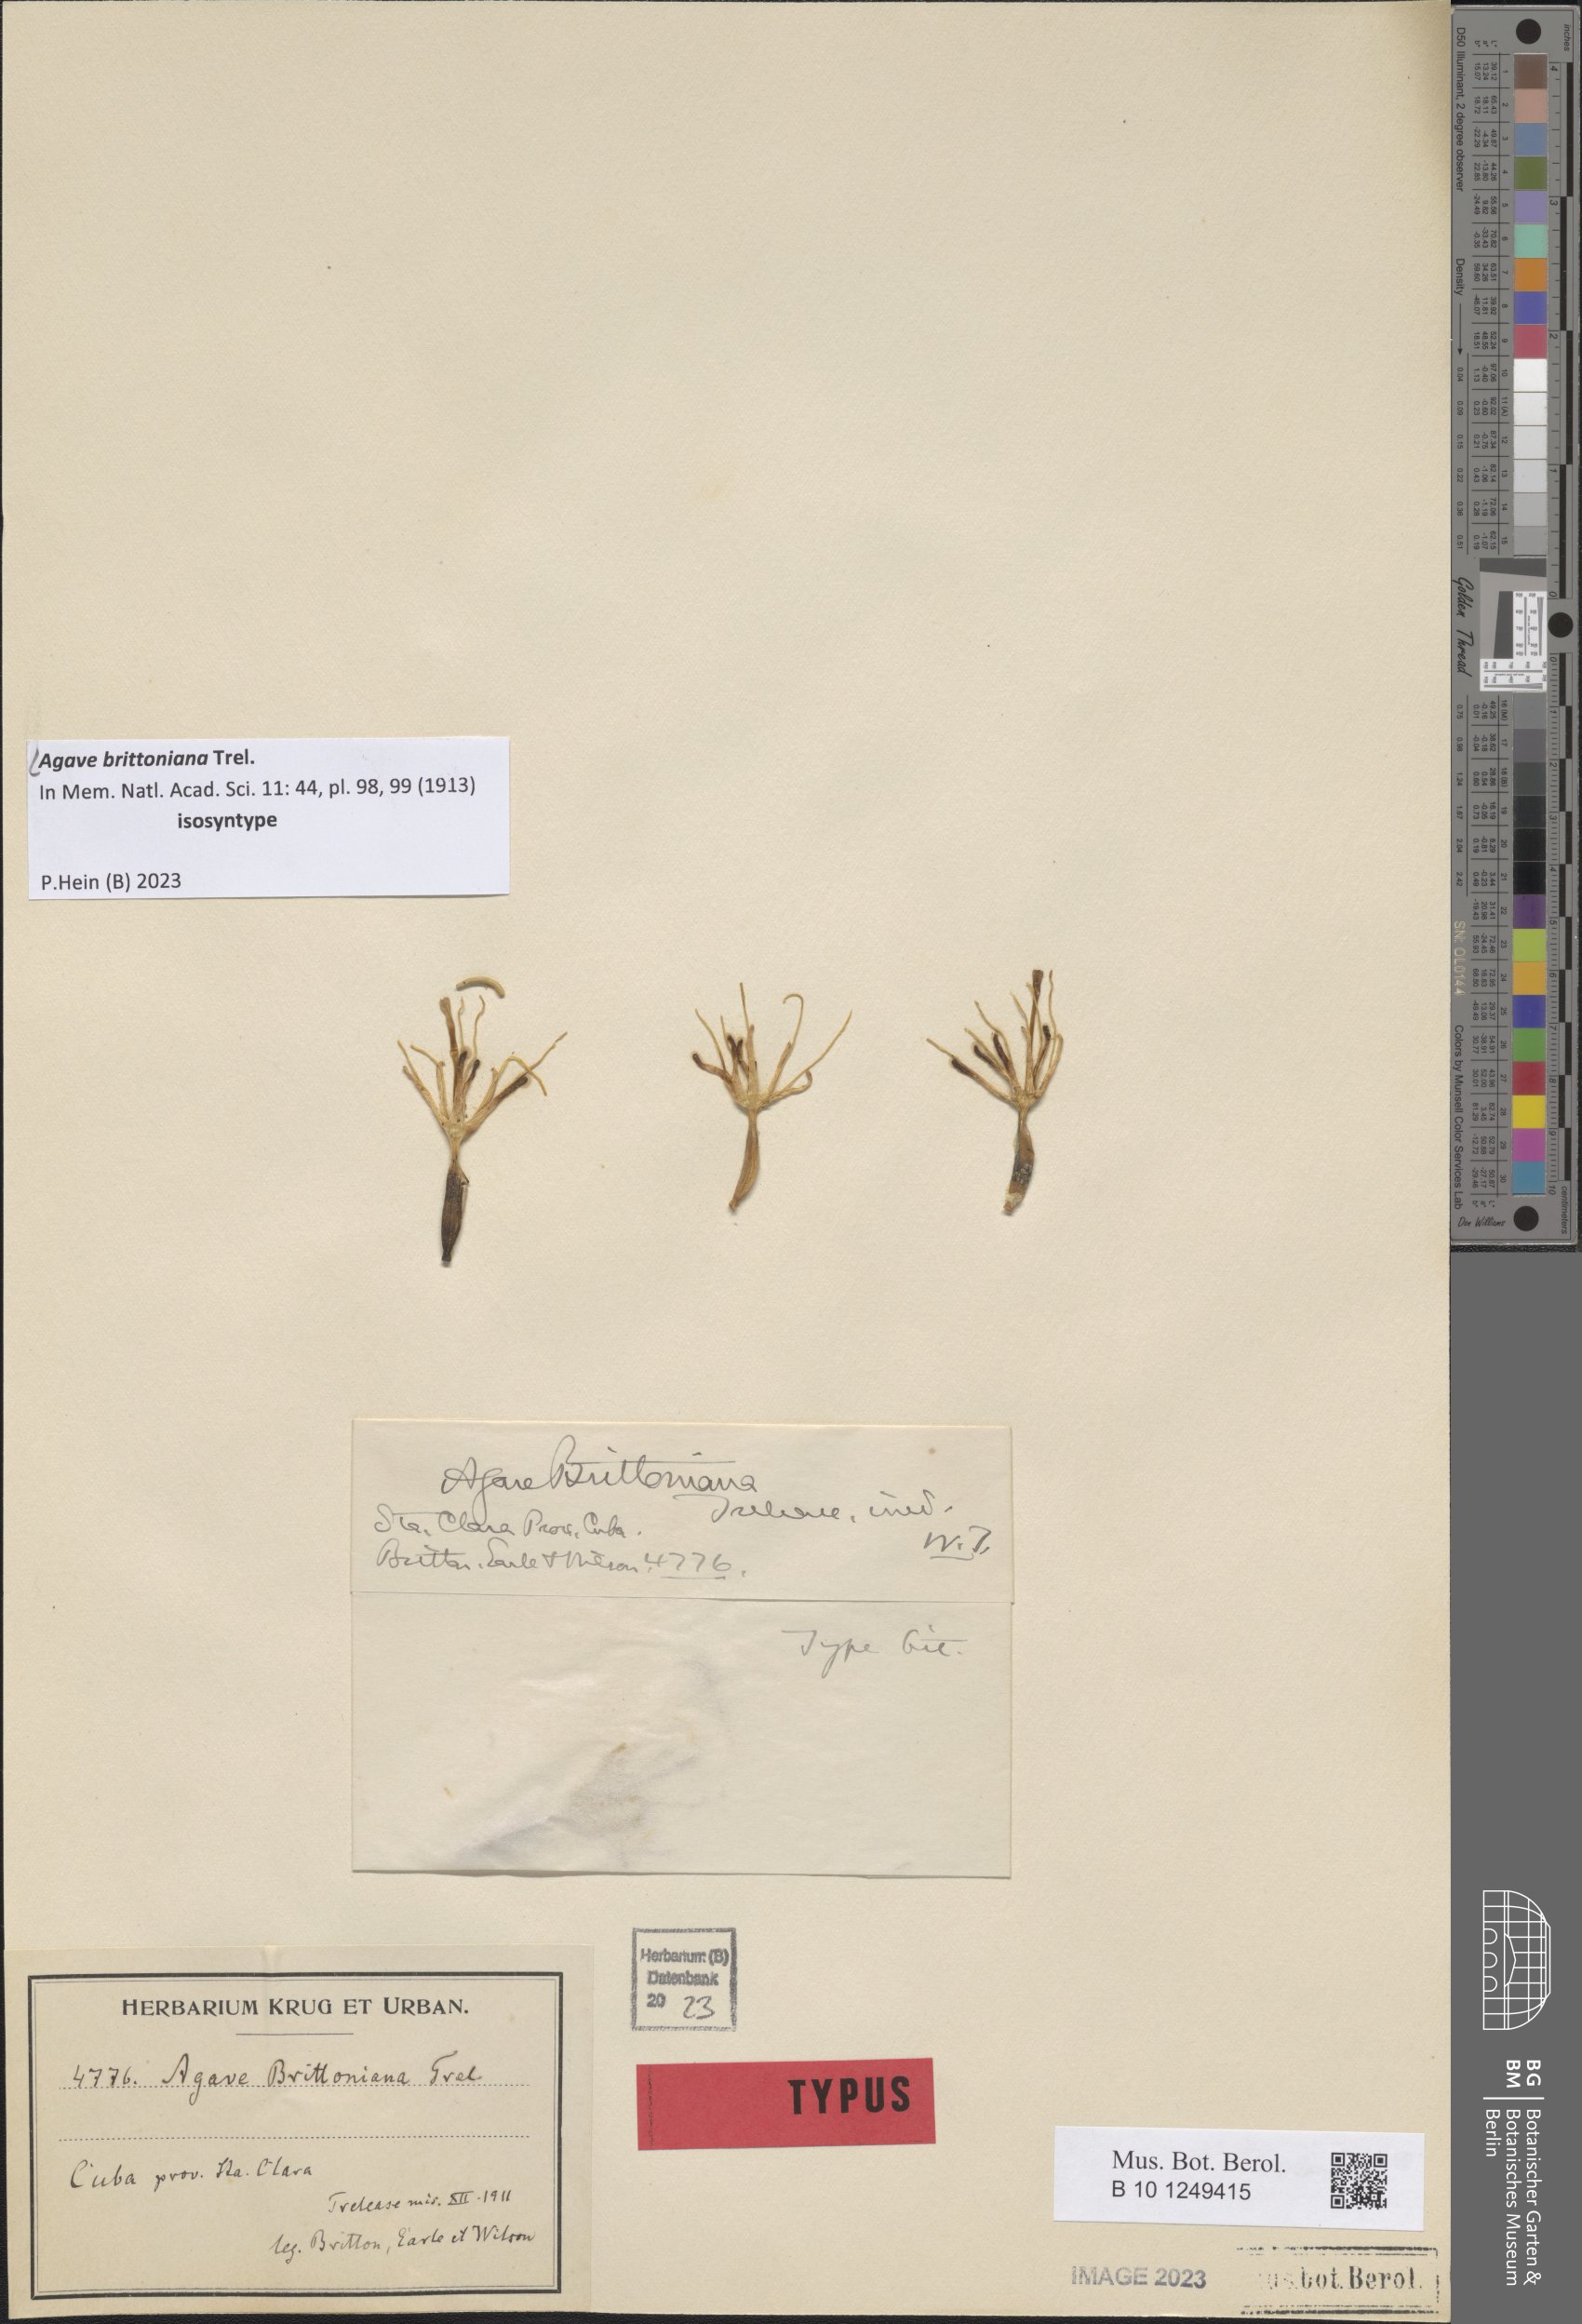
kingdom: Plantae
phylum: Tracheophyta
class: Liliopsida
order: Asparagales
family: Asparagaceae
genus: Agave
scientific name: Agave brittoniana
